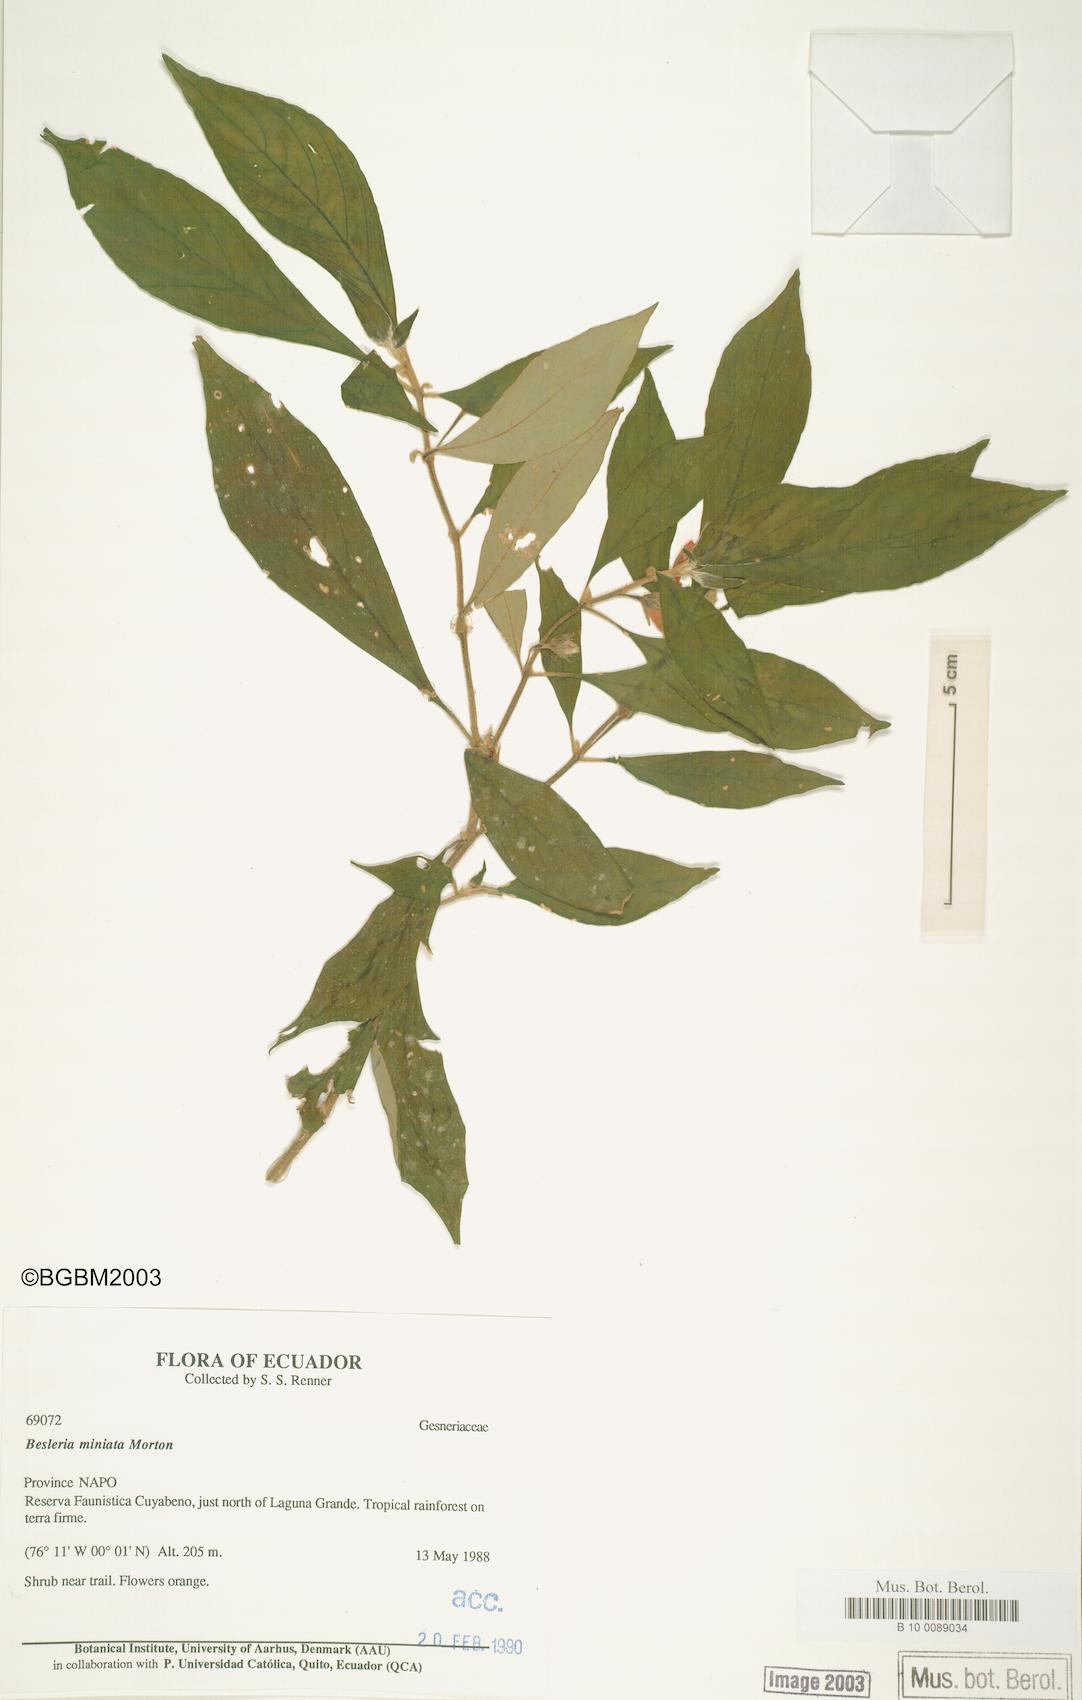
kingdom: Plantae
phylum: Tracheophyta
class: Magnoliopsida
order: Lamiales
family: Gesneriaceae
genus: Besleria
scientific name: Besleria miniata
